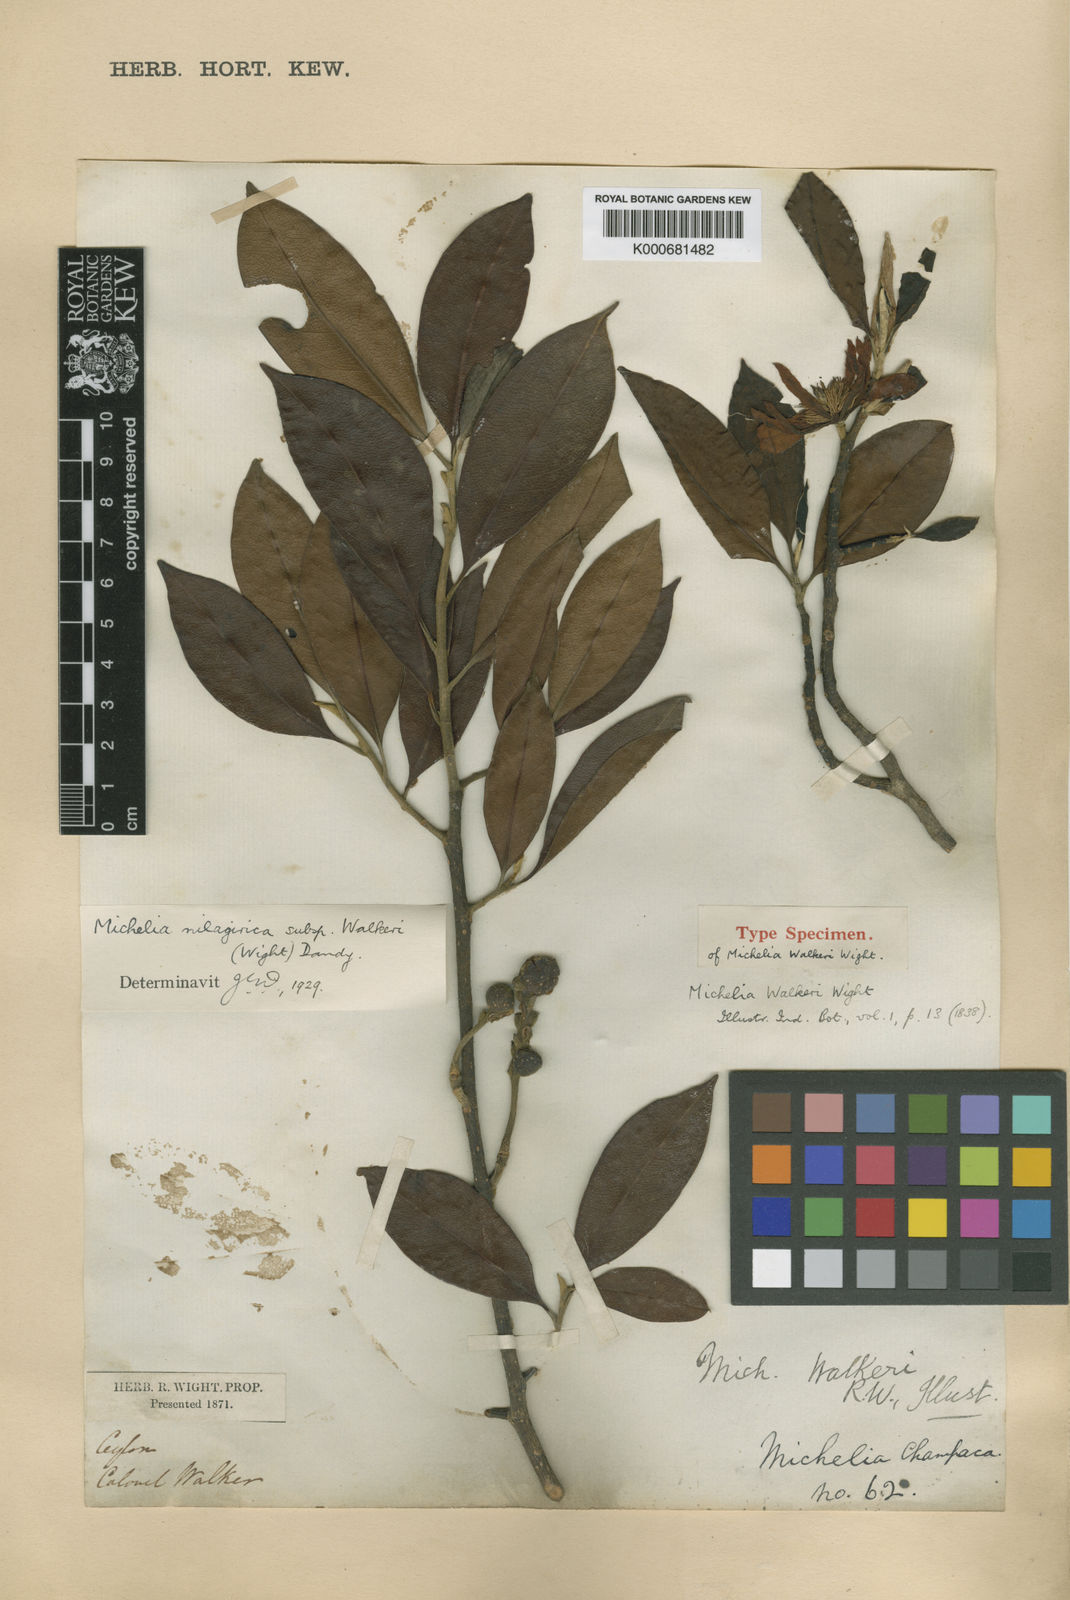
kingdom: Plantae
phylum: Tracheophyta
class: Magnoliopsida
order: Magnoliales
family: Magnoliaceae
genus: Magnolia
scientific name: Magnolia nilagirica
